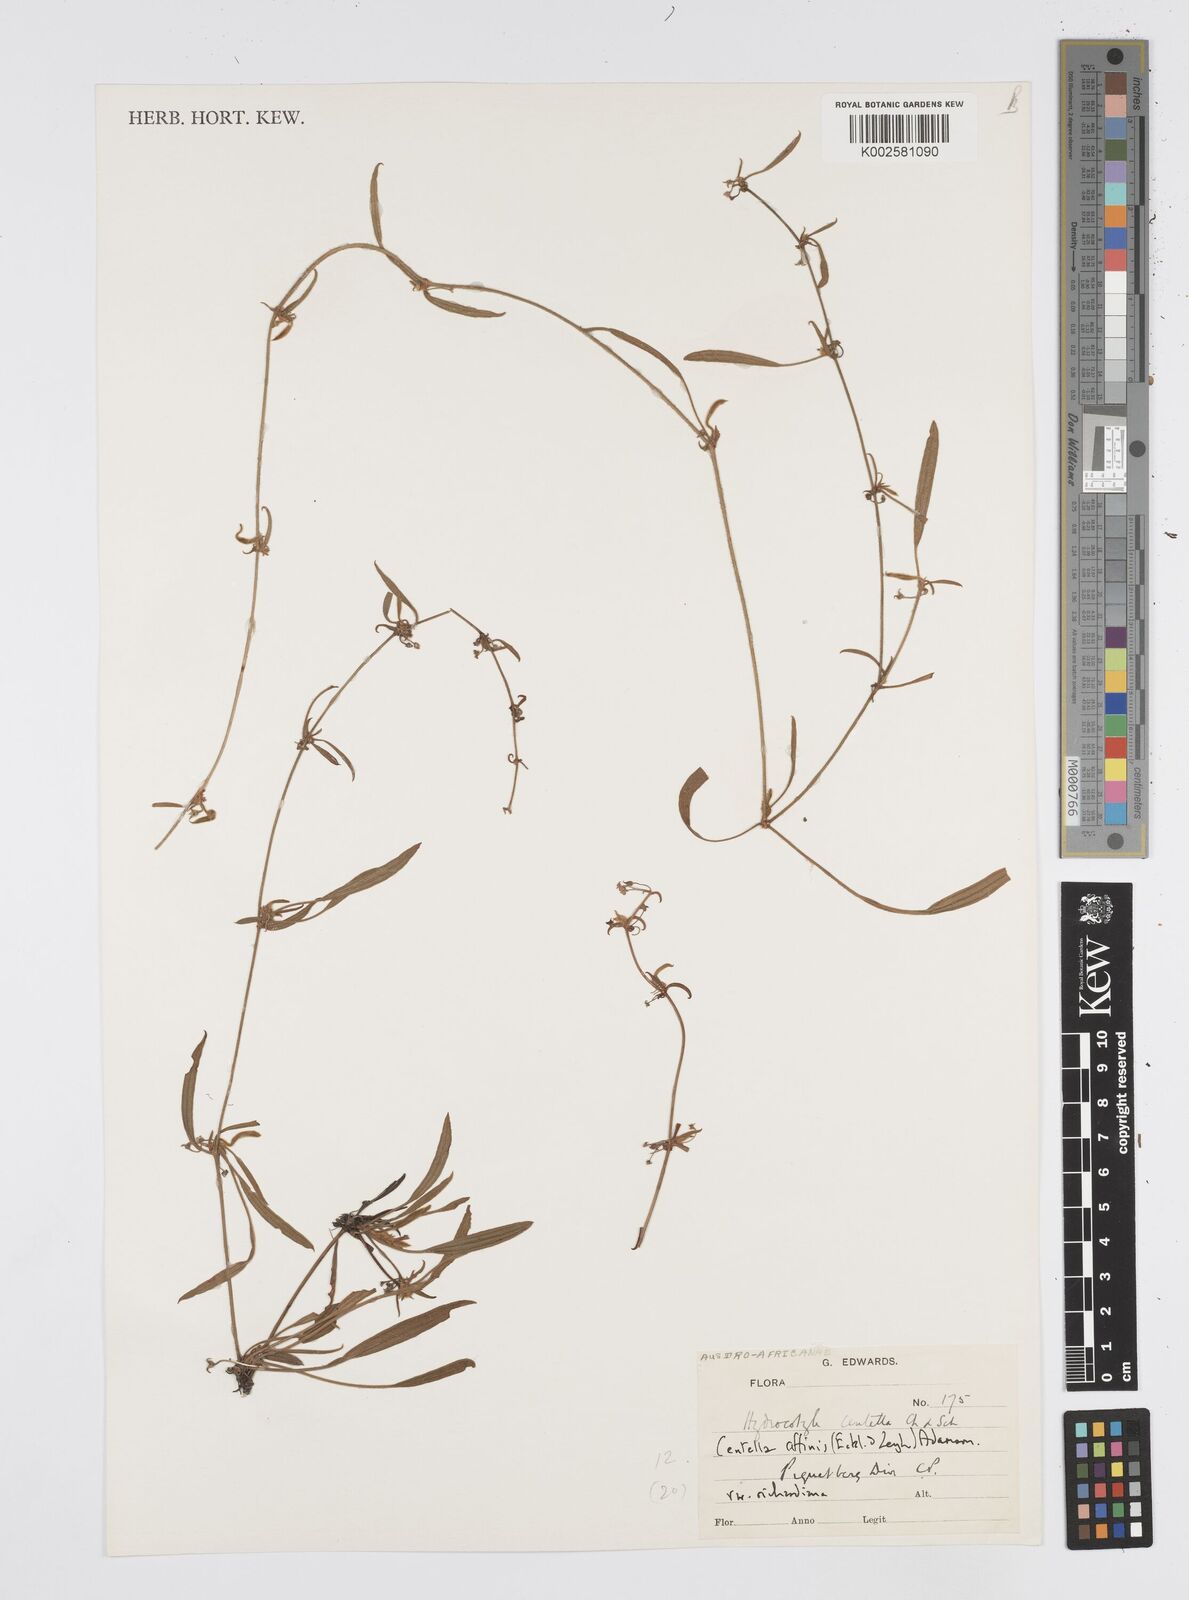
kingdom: Plantae
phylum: Tracheophyta
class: Magnoliopsida
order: Apiales
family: Apiaceae
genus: Centella
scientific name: Centella affinis
